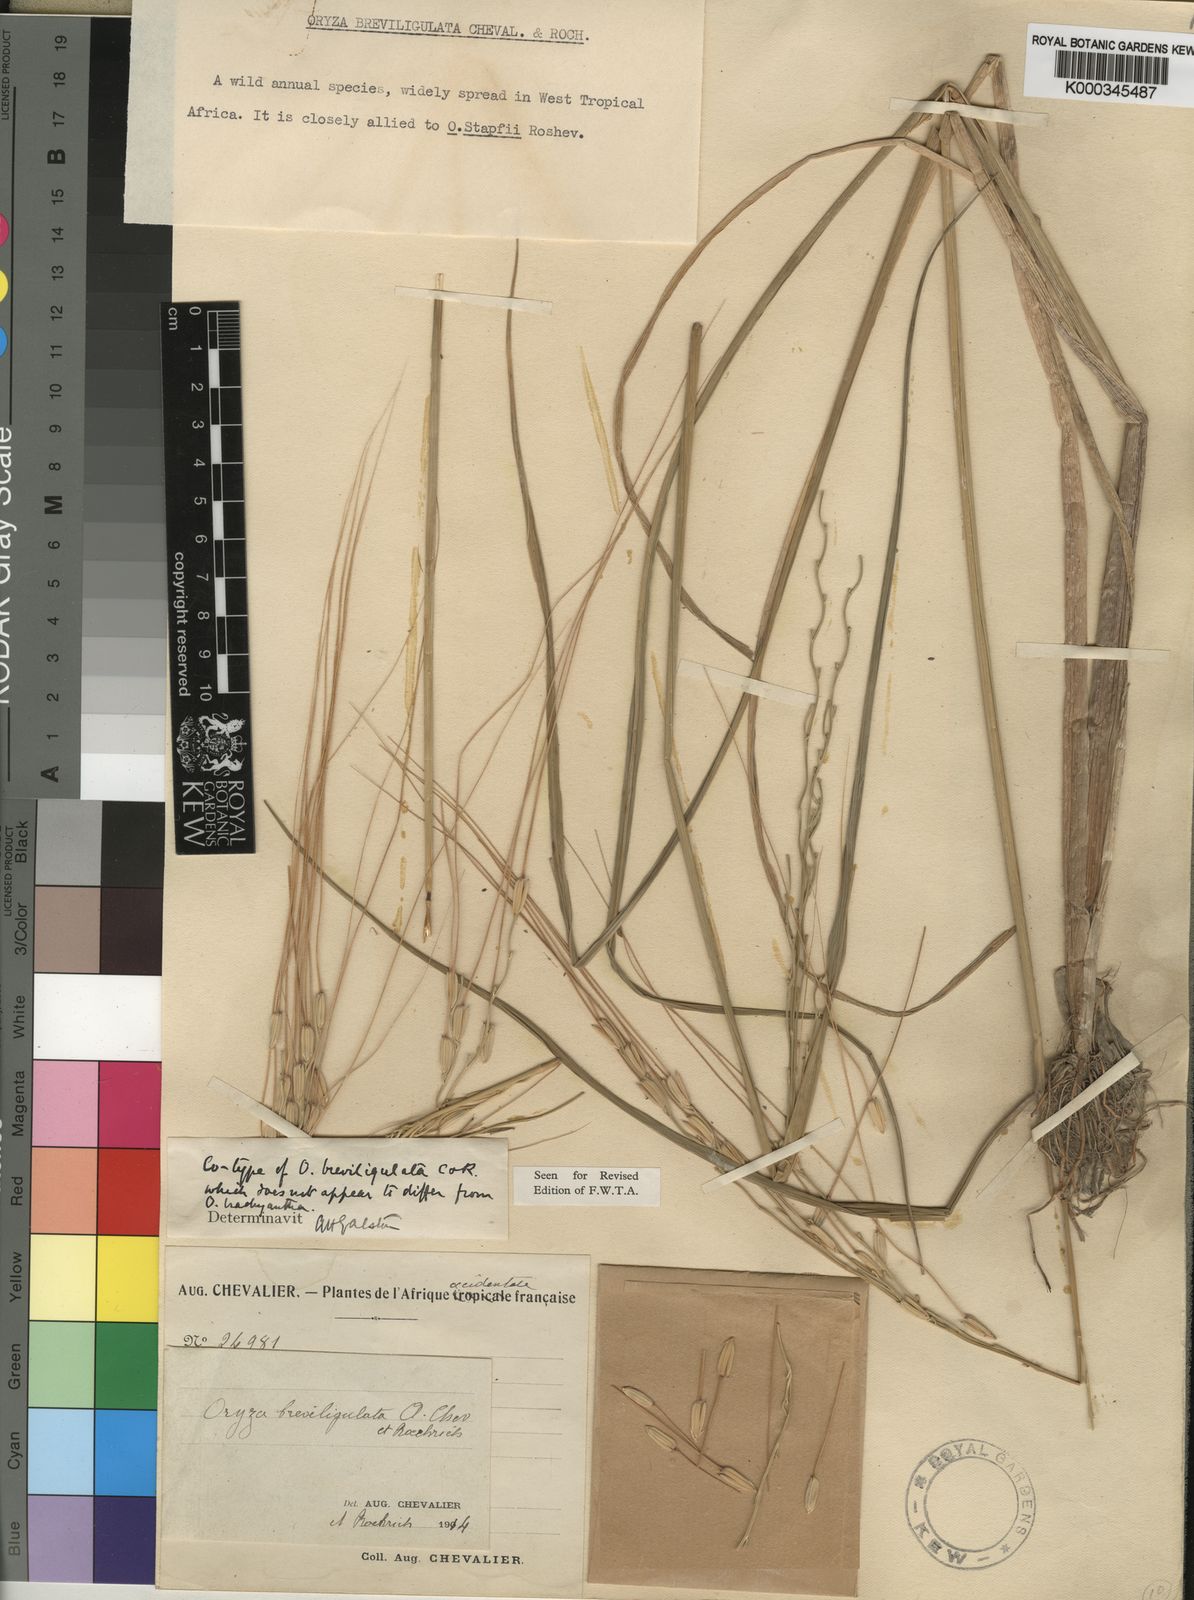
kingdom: Plantae
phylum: Tracheophyta
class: Liliopsida
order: Poales
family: Poaceae
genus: Oryza
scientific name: Oryza barthii
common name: Wild rice
